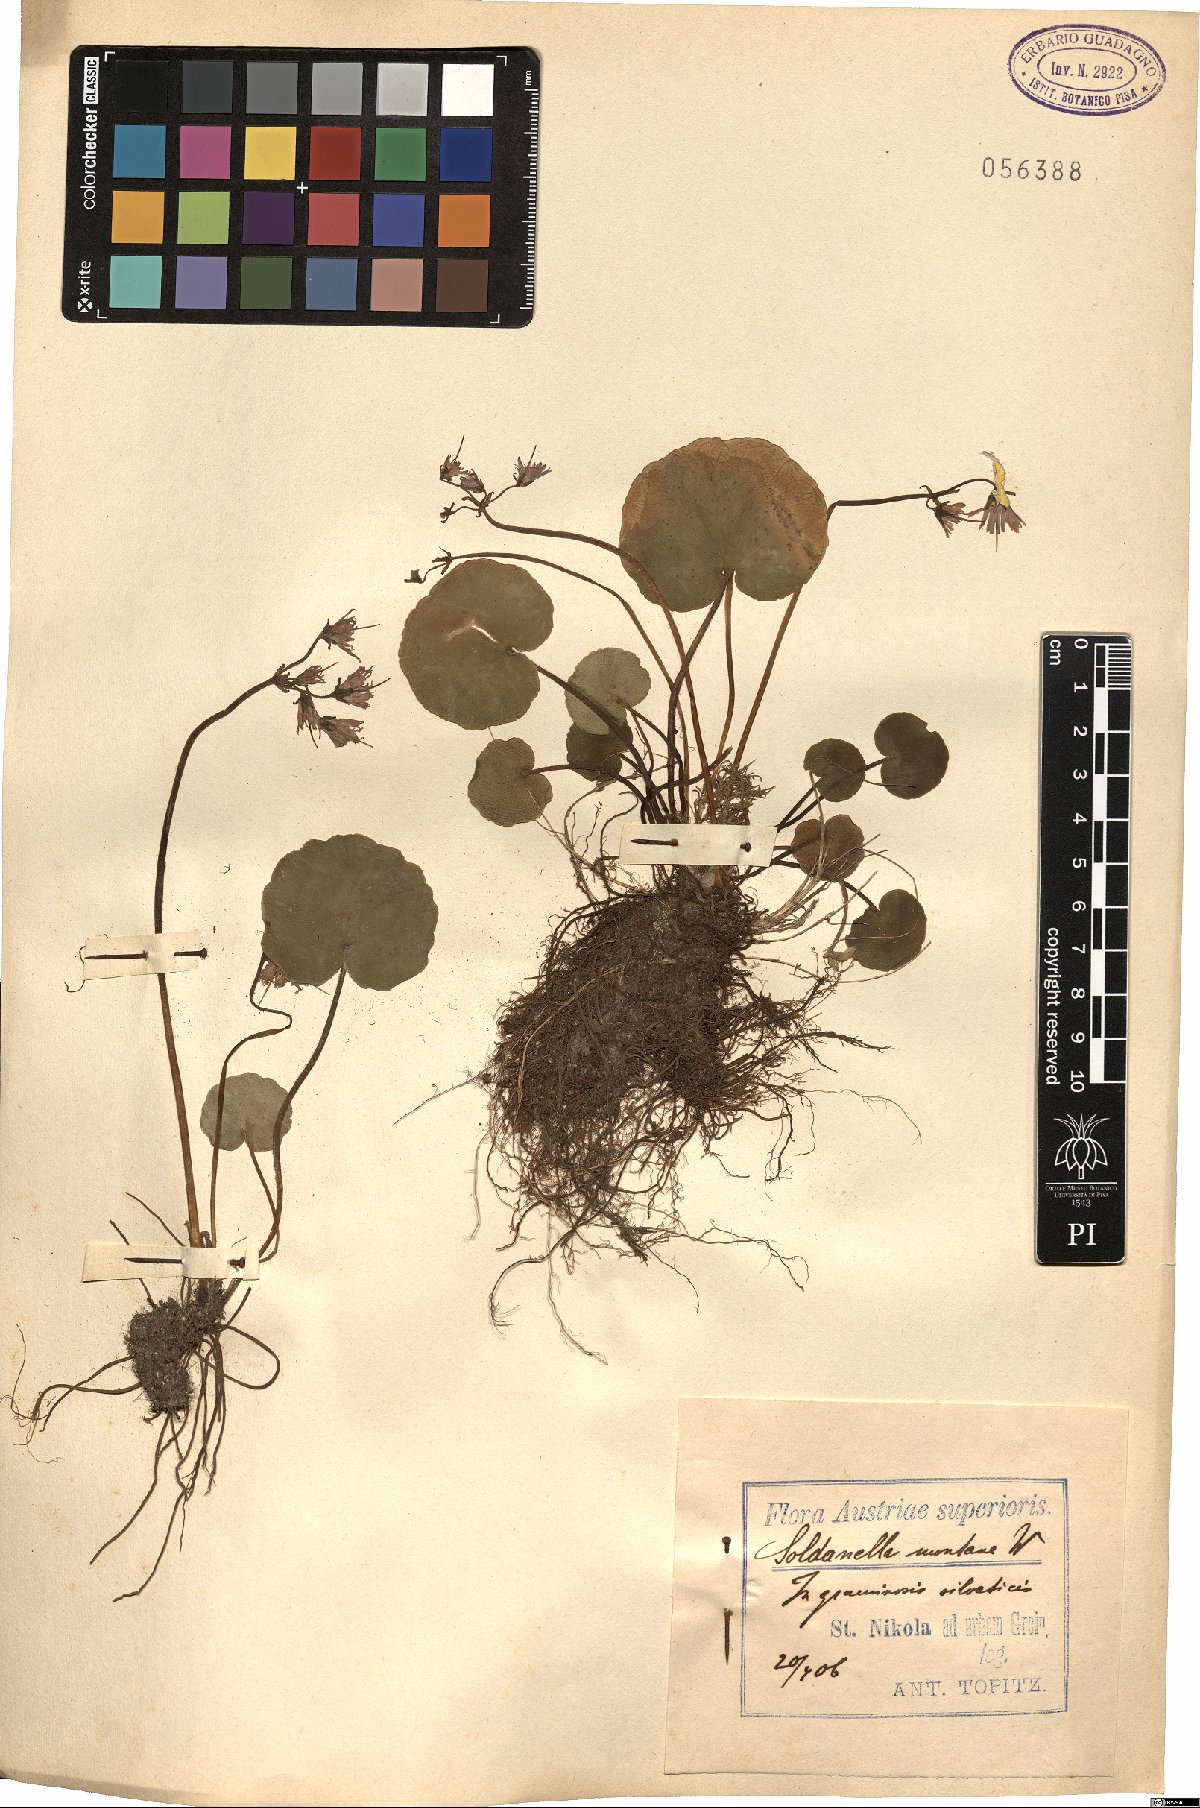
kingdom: Plantae
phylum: Tracheophyta
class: Magnoliopsida
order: Ericales
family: Primulaceae
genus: Soldanella
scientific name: Soldanella montana
